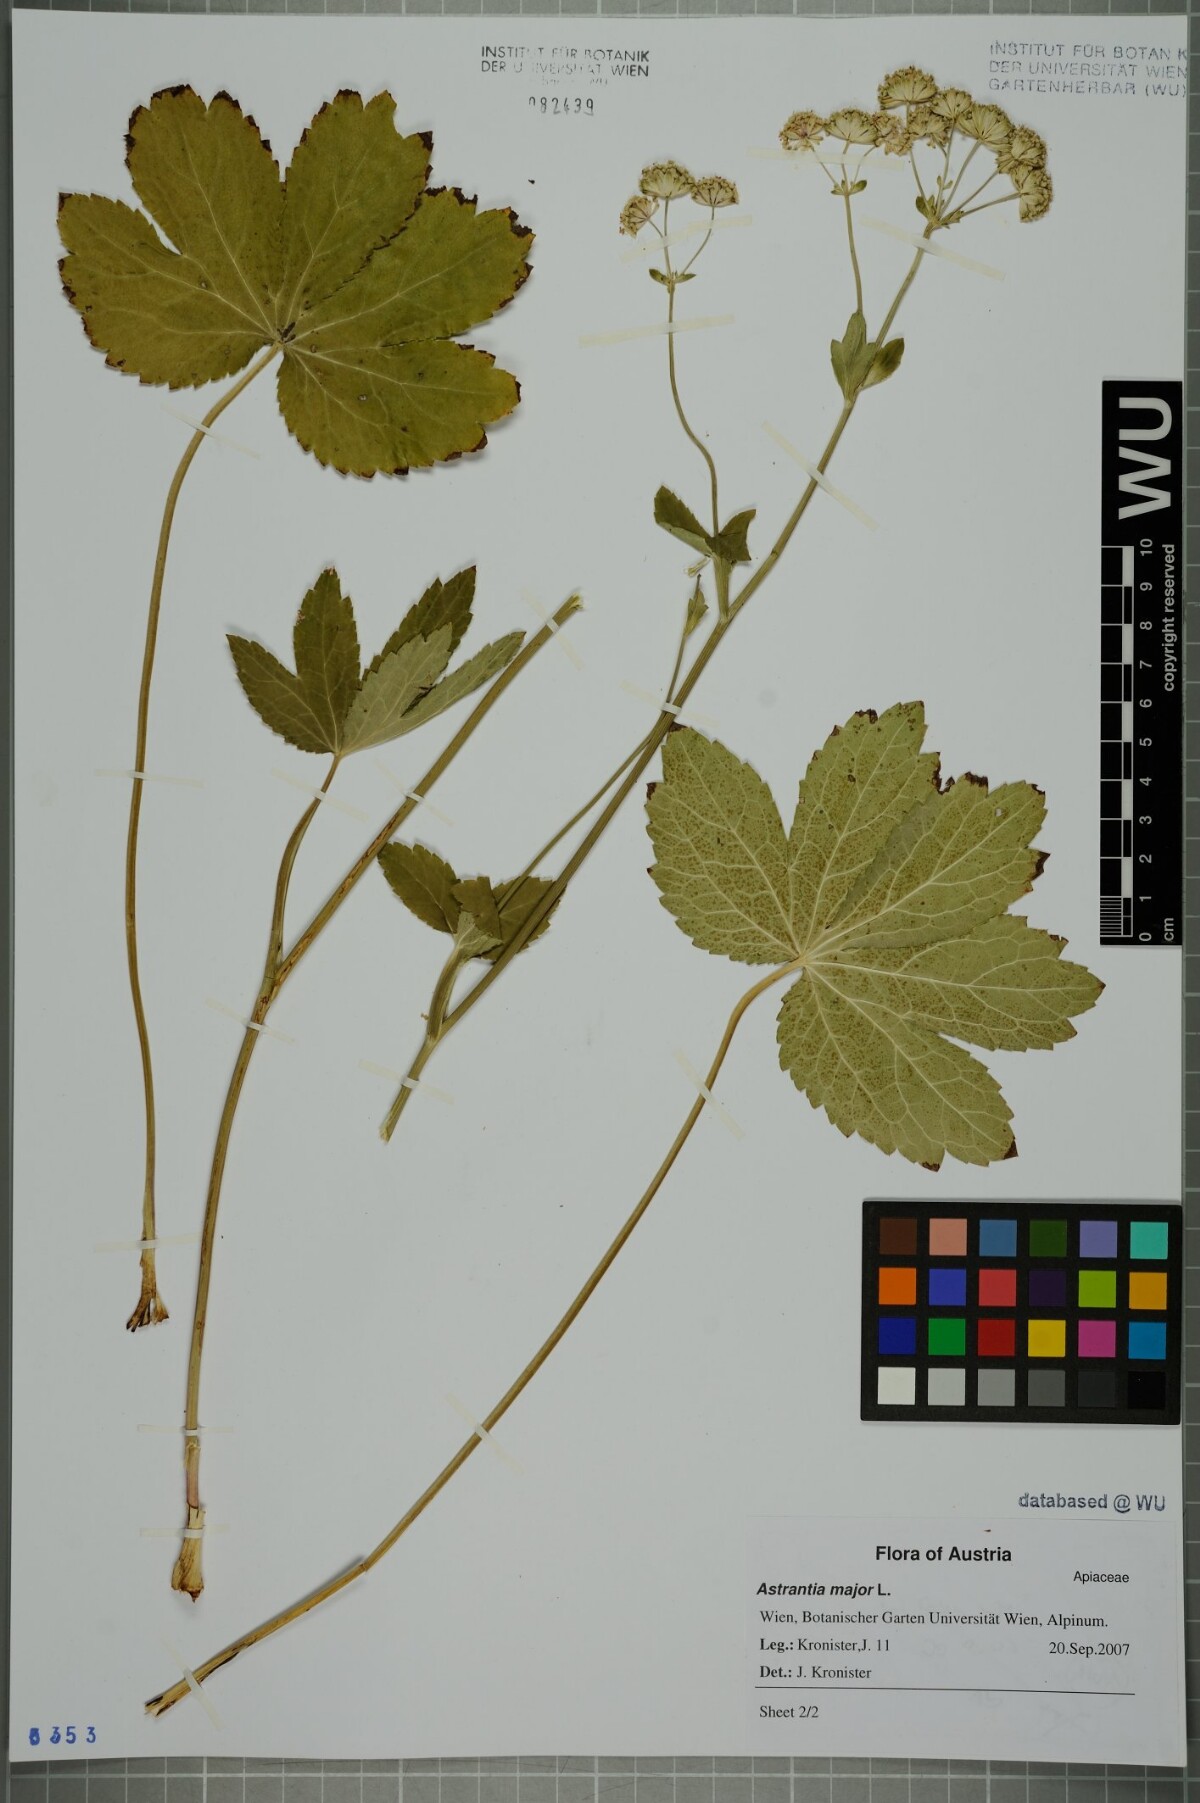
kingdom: Plantae
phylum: Tracheophyta
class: Magnoliopsida
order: Apiales
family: Apiaceae
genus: Astrantia
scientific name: Astrantia major
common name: Greater masterwort
